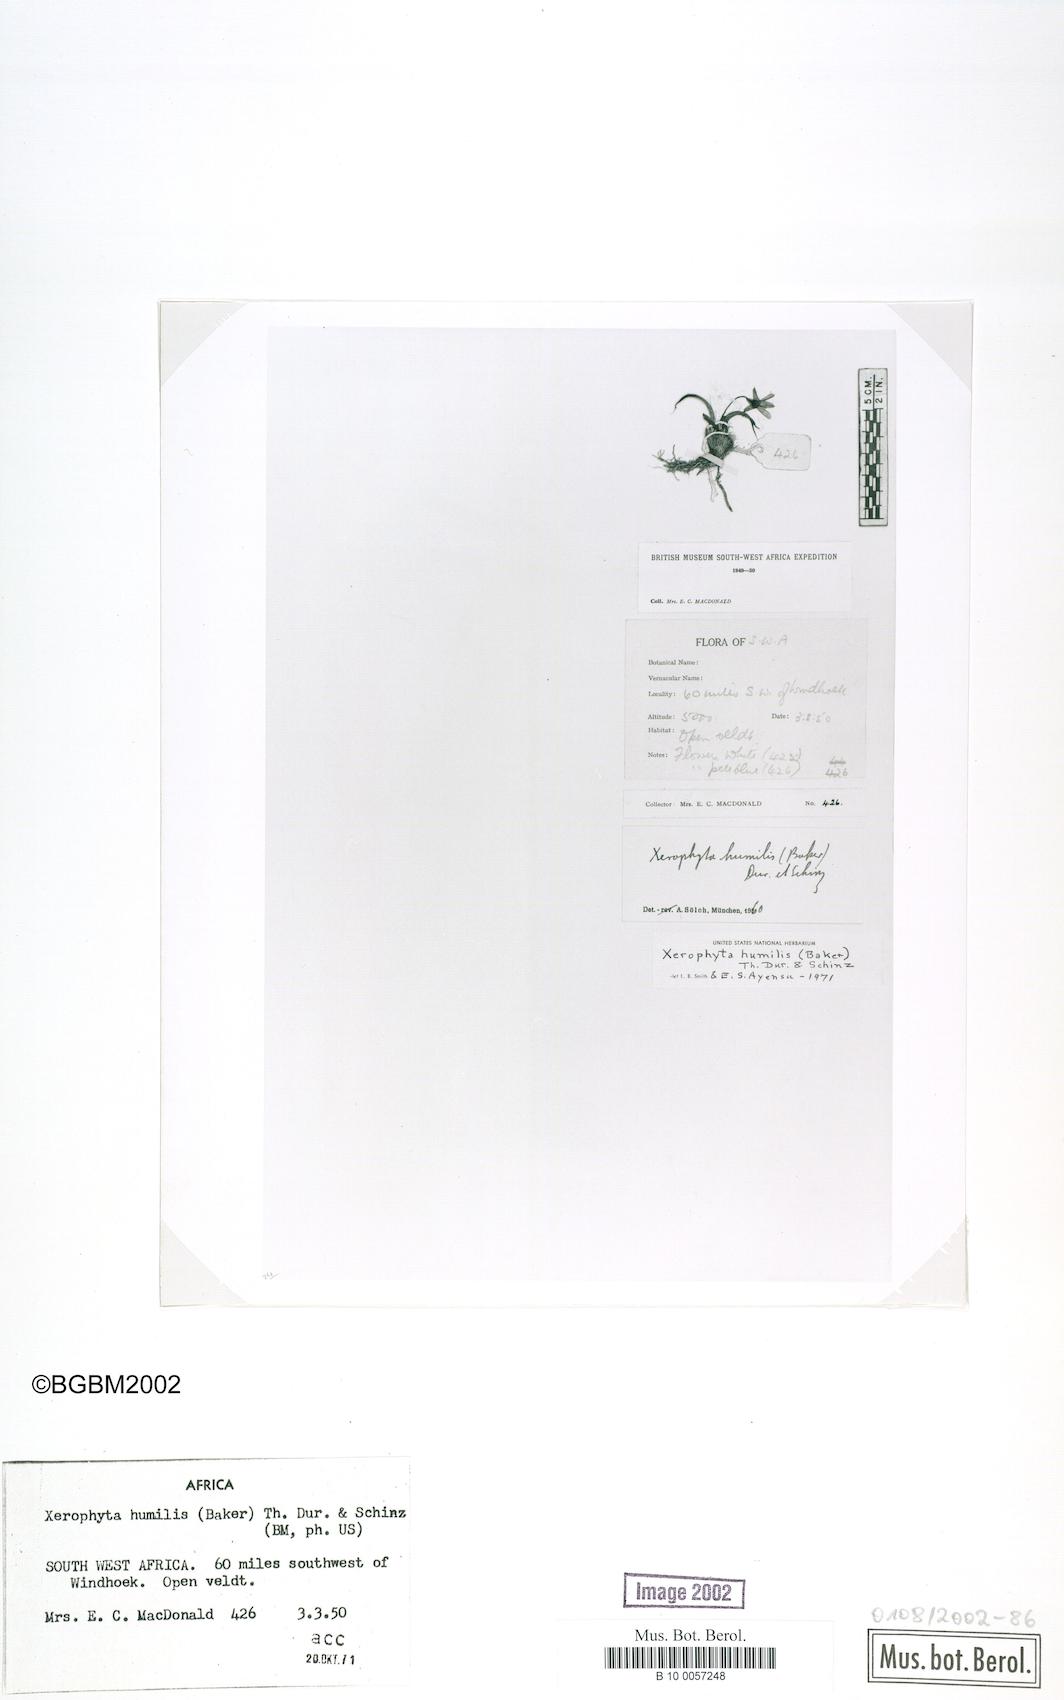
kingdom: Plantae
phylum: Tracheophyta
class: Liliopsida
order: Pandanales
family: Velloziaceae
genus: Xerophyta
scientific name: Xerophyta humilis
